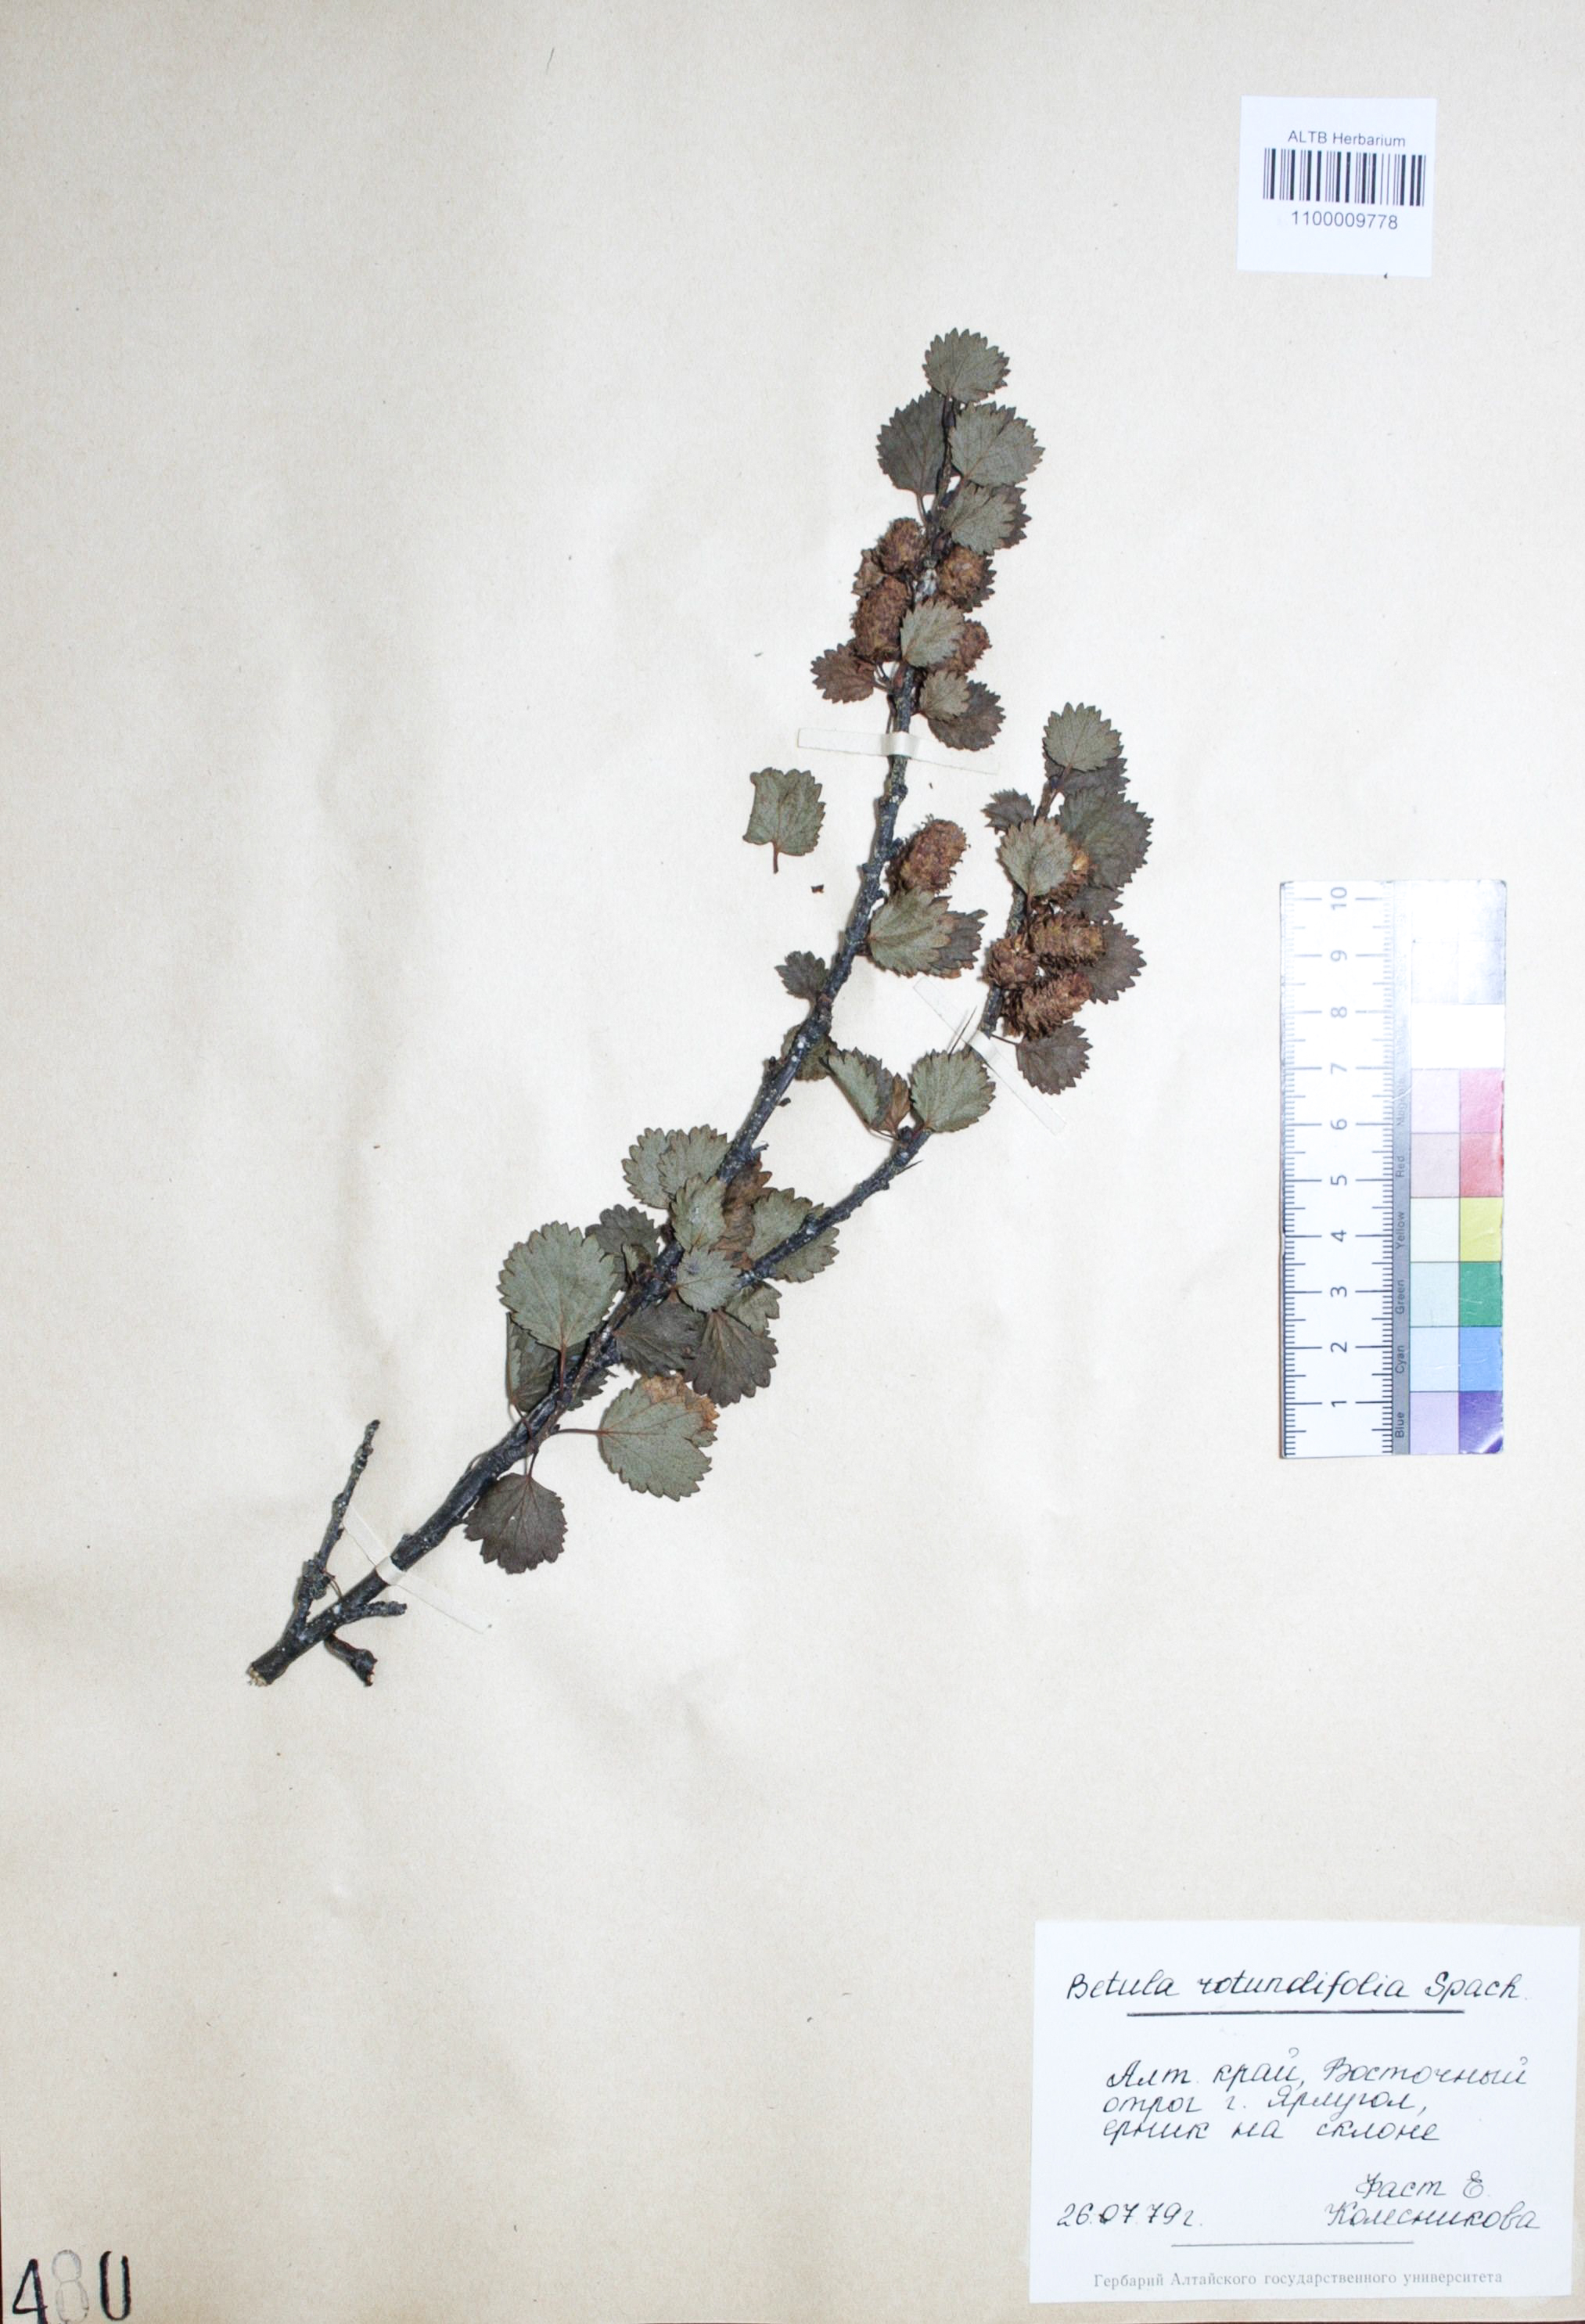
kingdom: Plantae
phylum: Tracheophyta
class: Magnoliopsida
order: Fagales
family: Betulaceae
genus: Betula
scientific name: Betula glandulosa
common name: Dwarf birch
